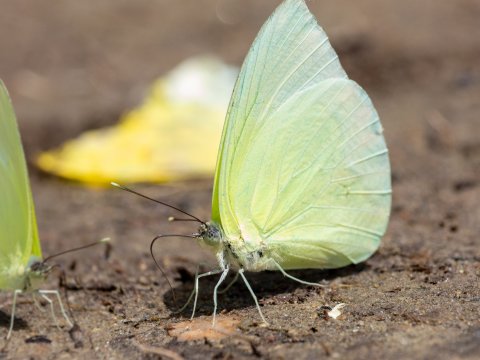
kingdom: Animalia
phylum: Arthropoda
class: Insecta
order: Lepidoptera
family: Pieridae
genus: Aphrissa
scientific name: Aphrissa statira
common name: Statira Sulphur
